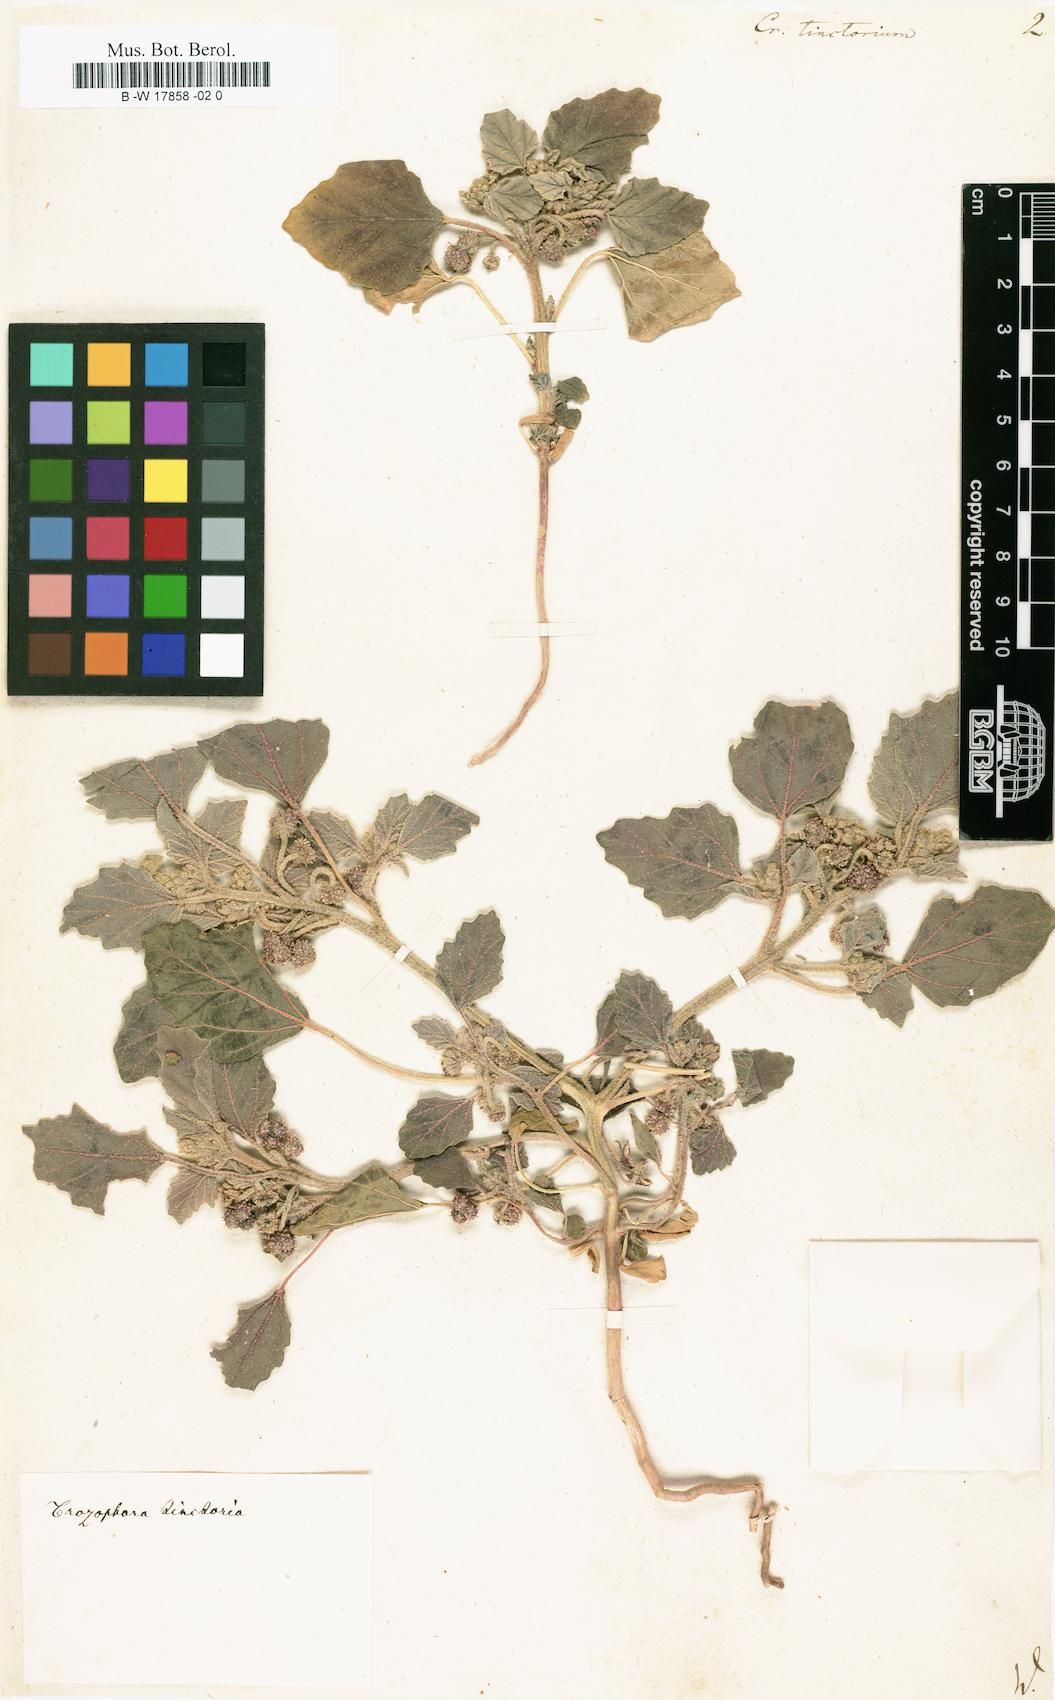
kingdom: Plantae
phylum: Tracheophyta
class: Magnoliopsida
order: Malpighiales
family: Euphorbiaceae
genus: Chrozophora
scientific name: Chrozophora
